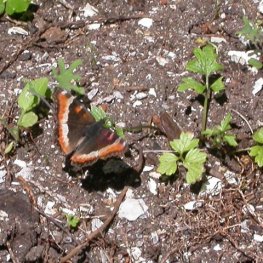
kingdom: Animalia
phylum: Arthropoda
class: Insecta
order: Lepidoptera
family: Nymphalidae
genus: Aglais
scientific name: Aglais milberti
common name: Milbert's Tortoiseshell
